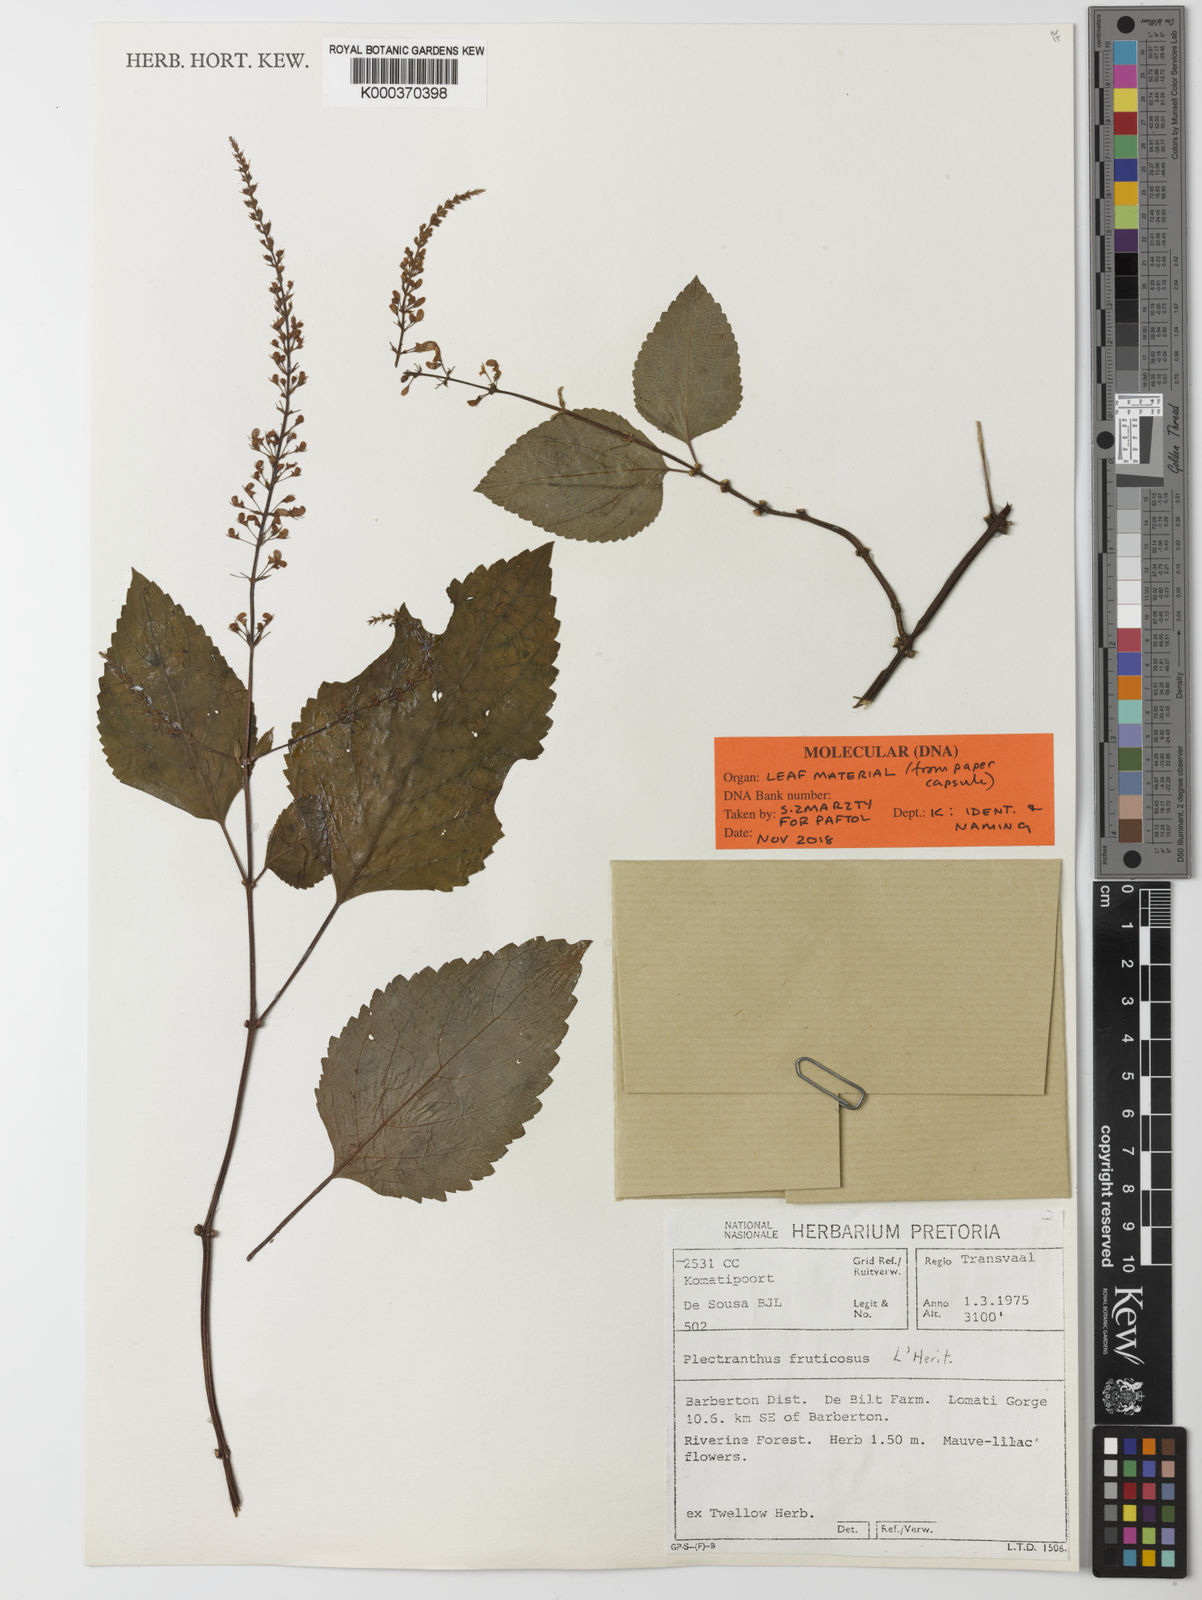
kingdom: Plantae
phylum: Tracheophyta
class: Magnoliopsida
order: Lamiales
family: Lamiaceae
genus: Plectranthus
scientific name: Plectranthus
